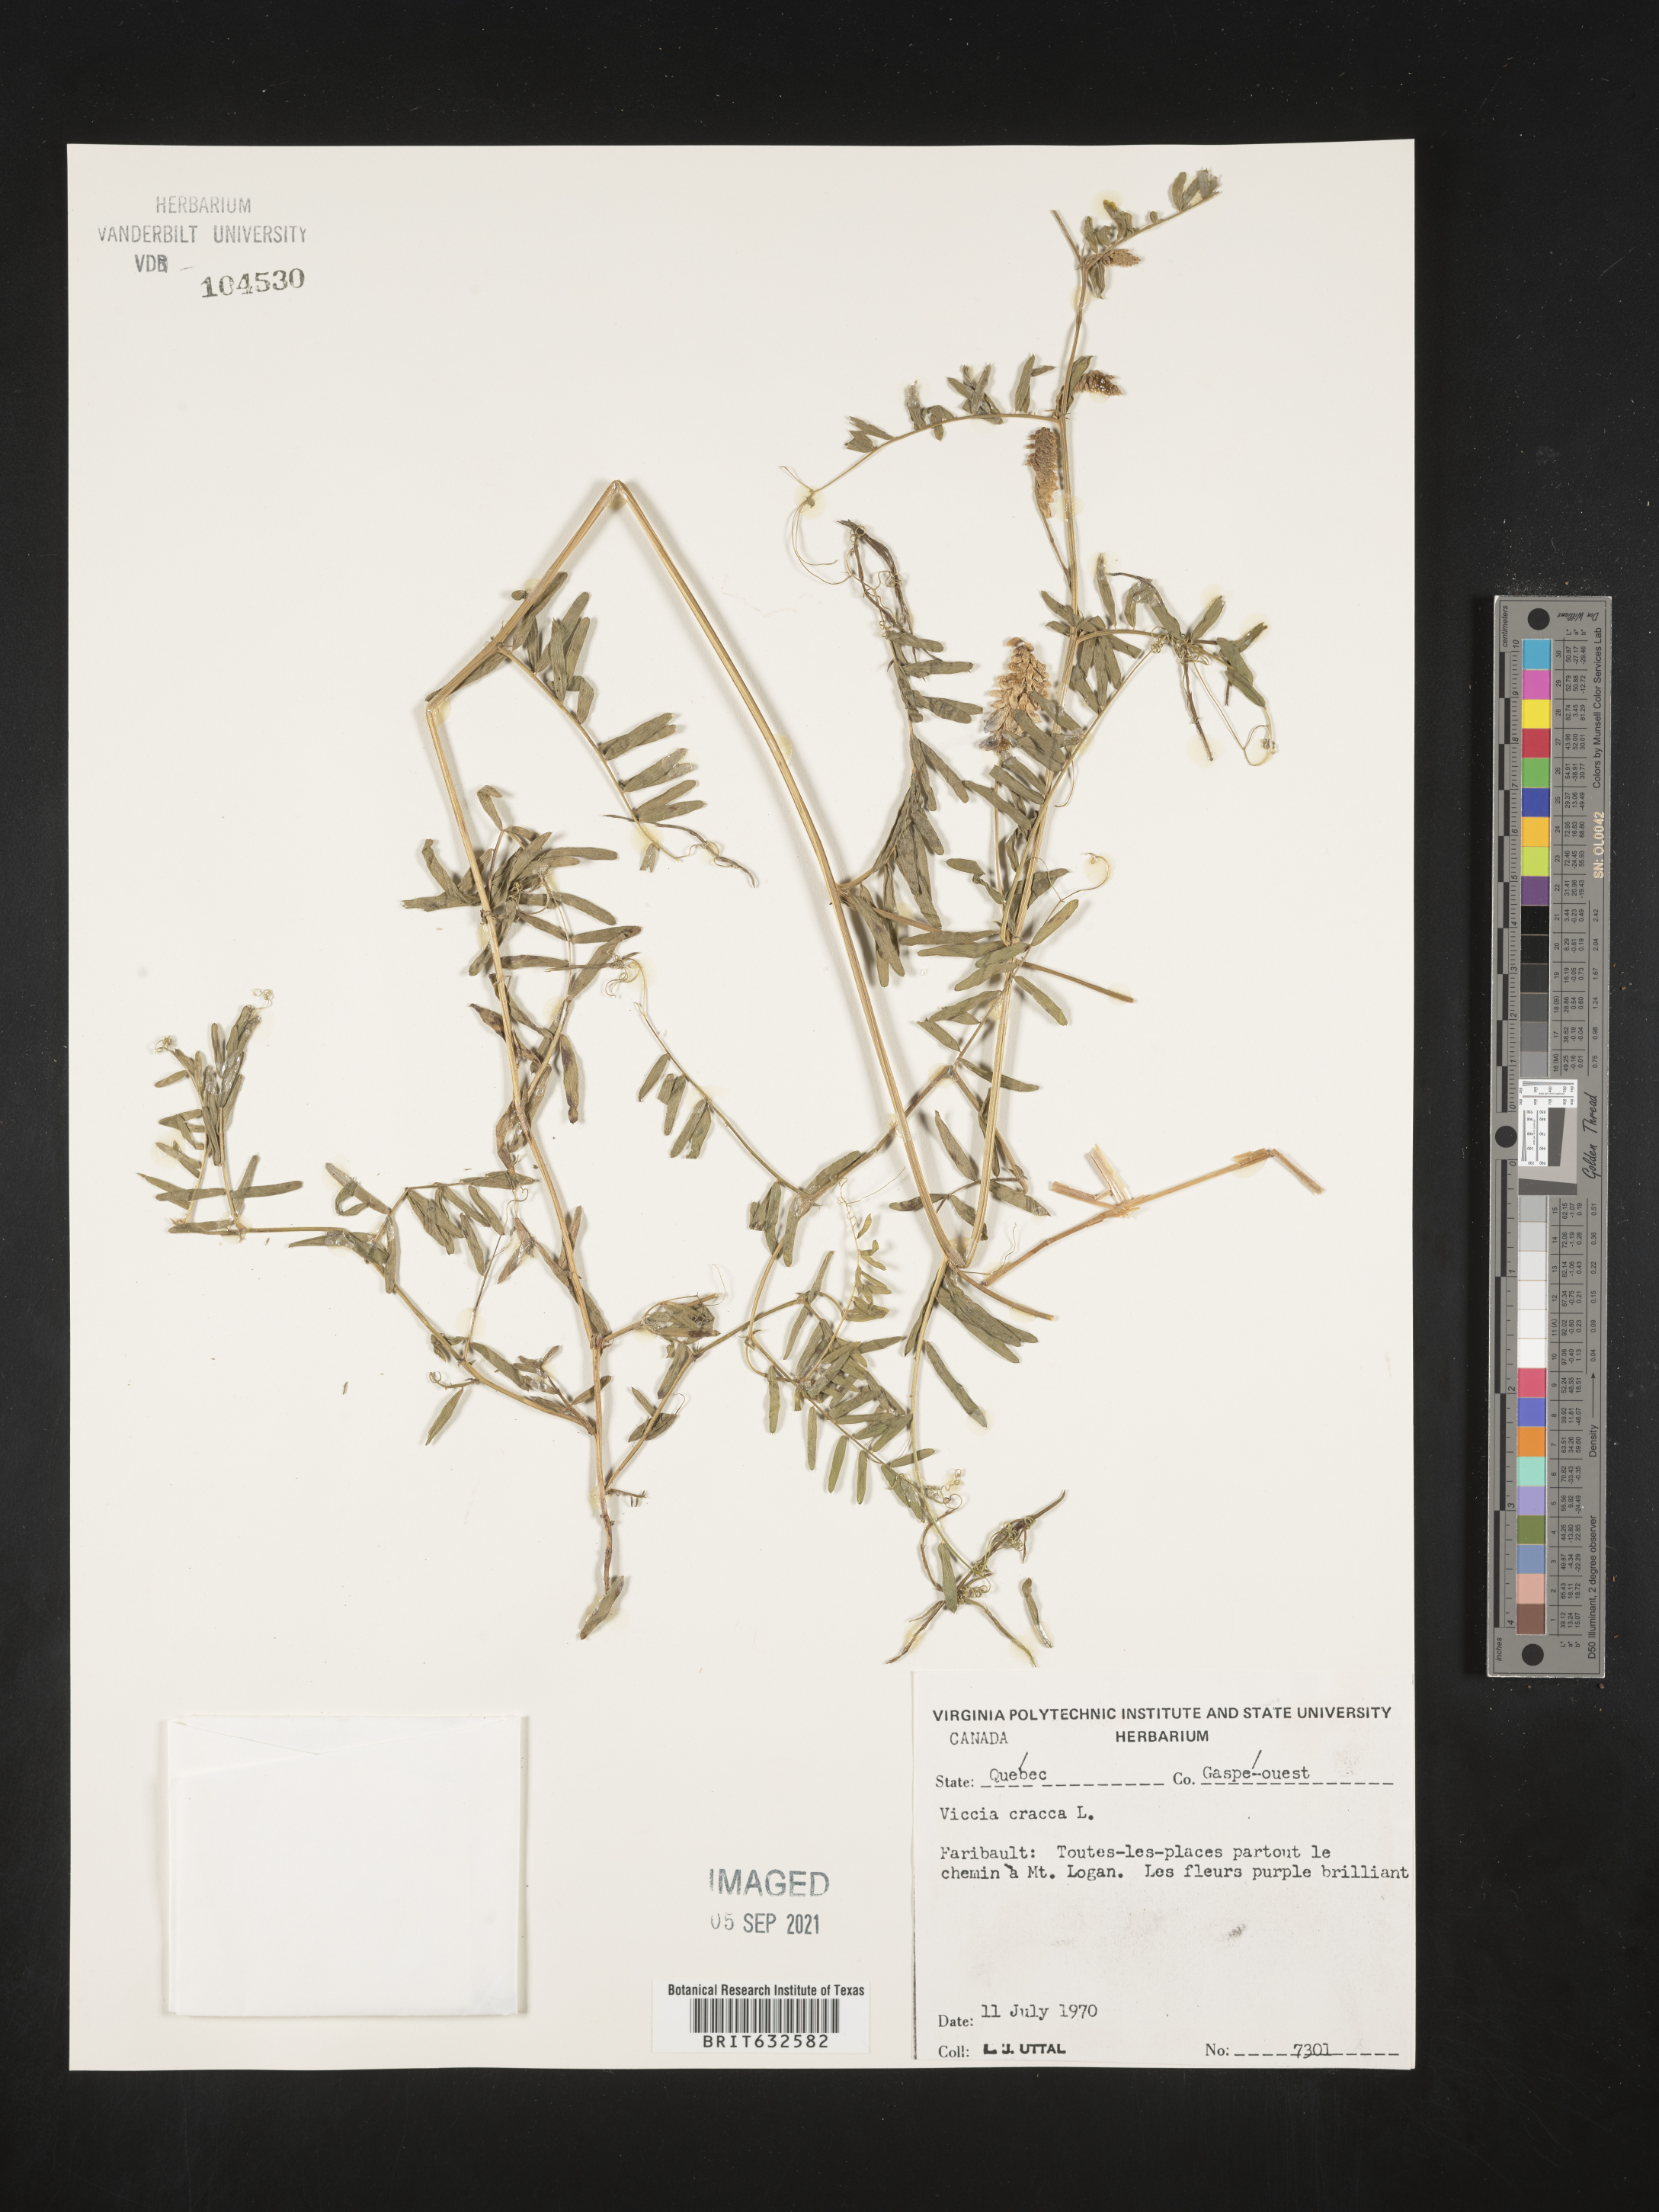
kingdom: Plantae
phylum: Tracheophyta
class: Magnoliopsida
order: Fabales
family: Fabaceae
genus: Vicia
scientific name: Vicia
